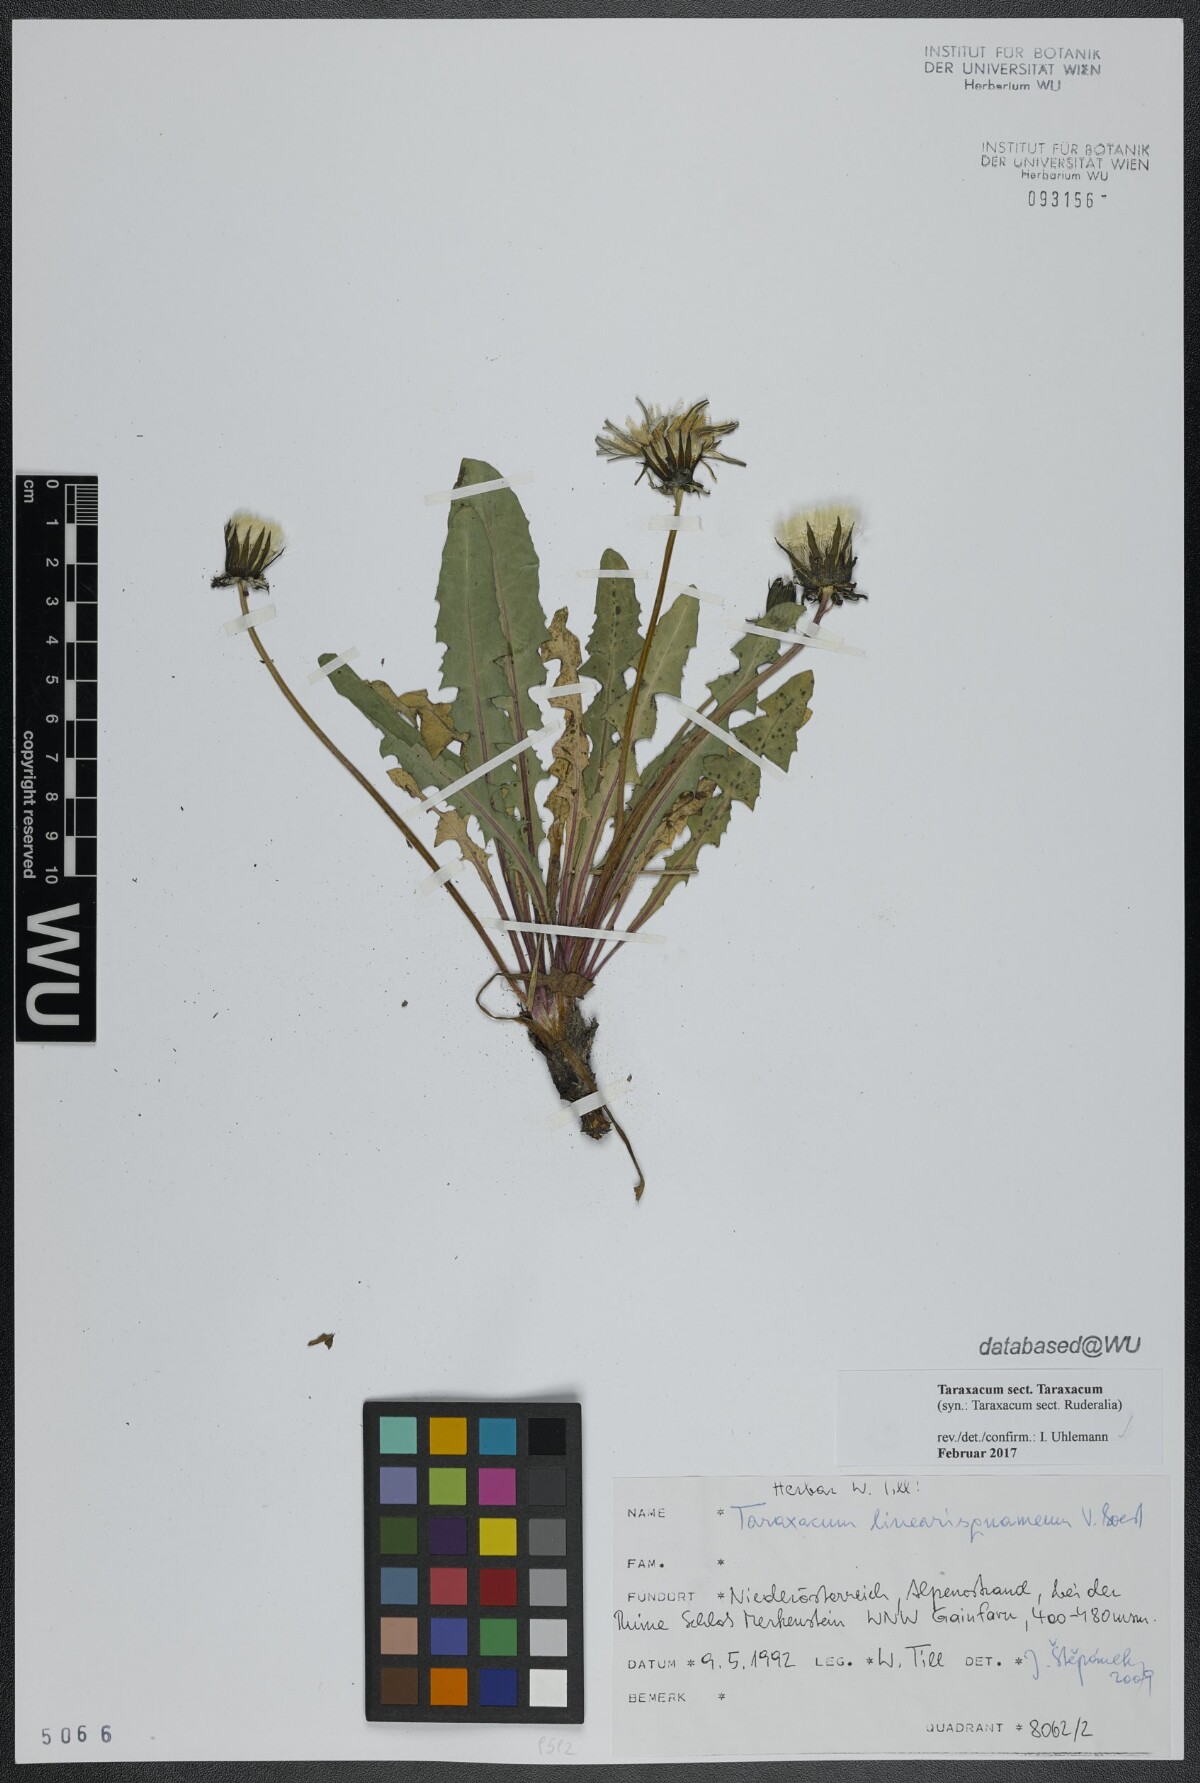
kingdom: Plantae
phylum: Tracheophyta
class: Magnoliopsida
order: Asterales
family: Asteraceae
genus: Taraxacum
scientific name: Taraxacum
